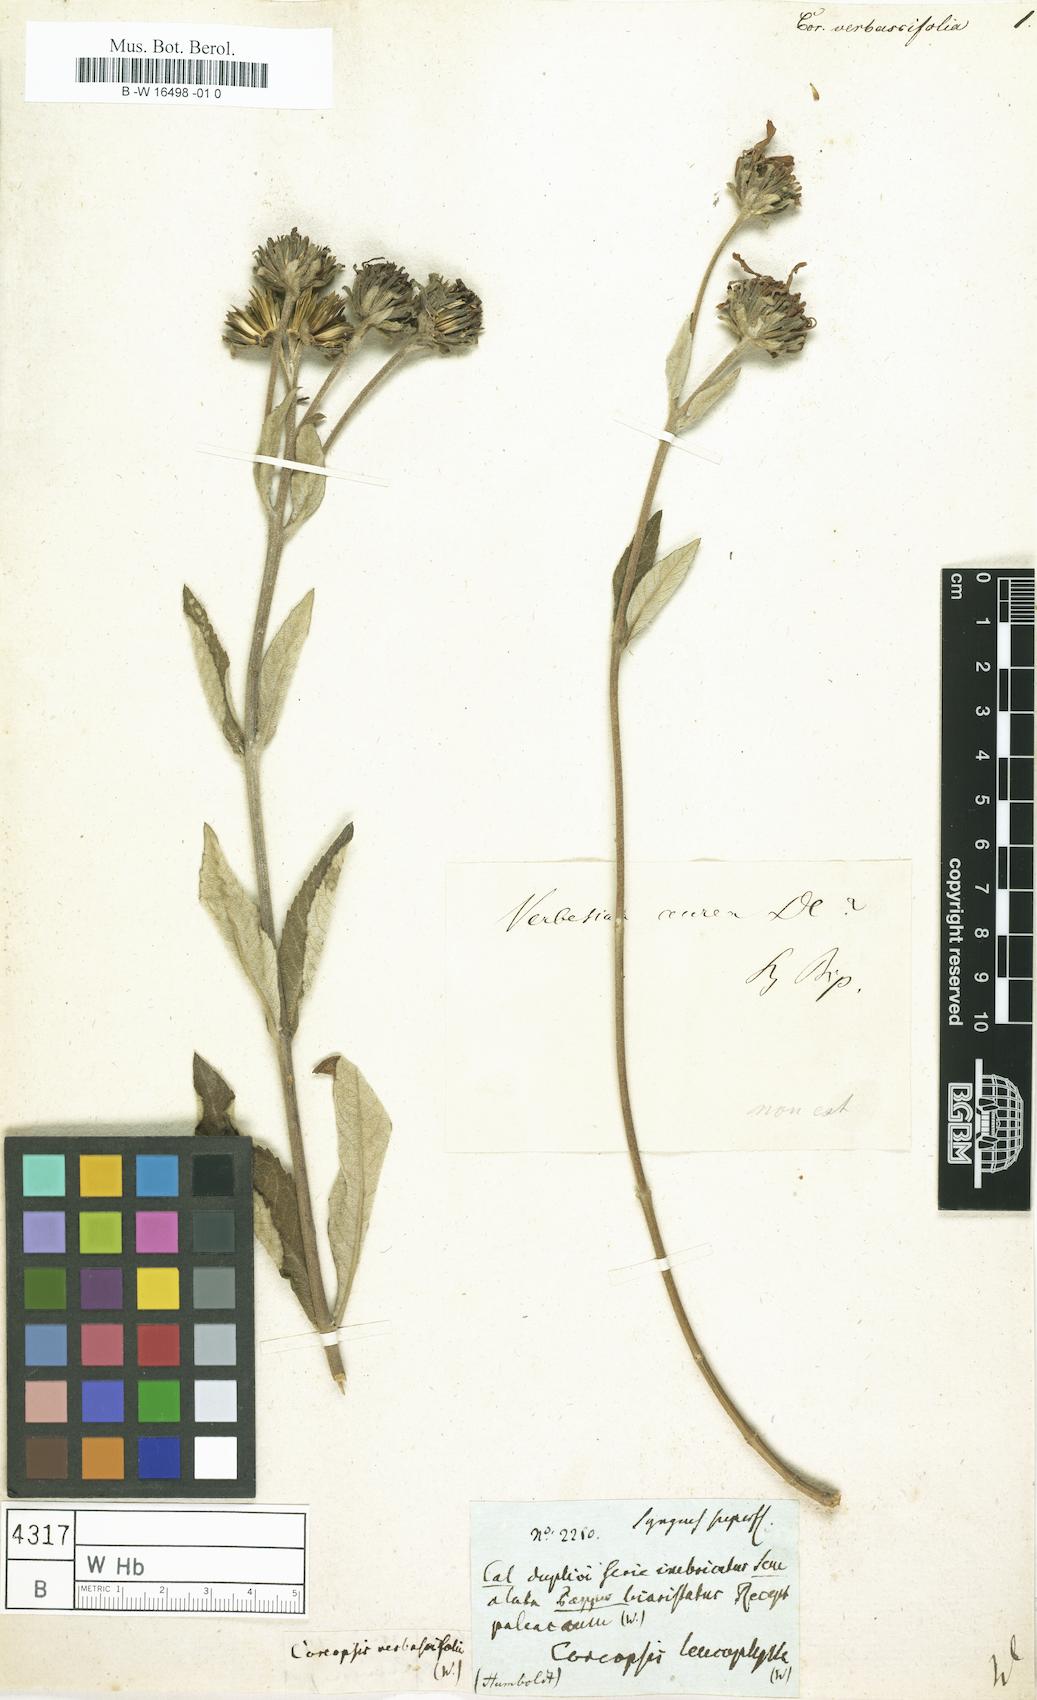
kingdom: Plantae
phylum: Tracheophyta
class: Magnoliopsida
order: Asterales
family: Asteraceae
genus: Coreopsis
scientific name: Coreopsis
